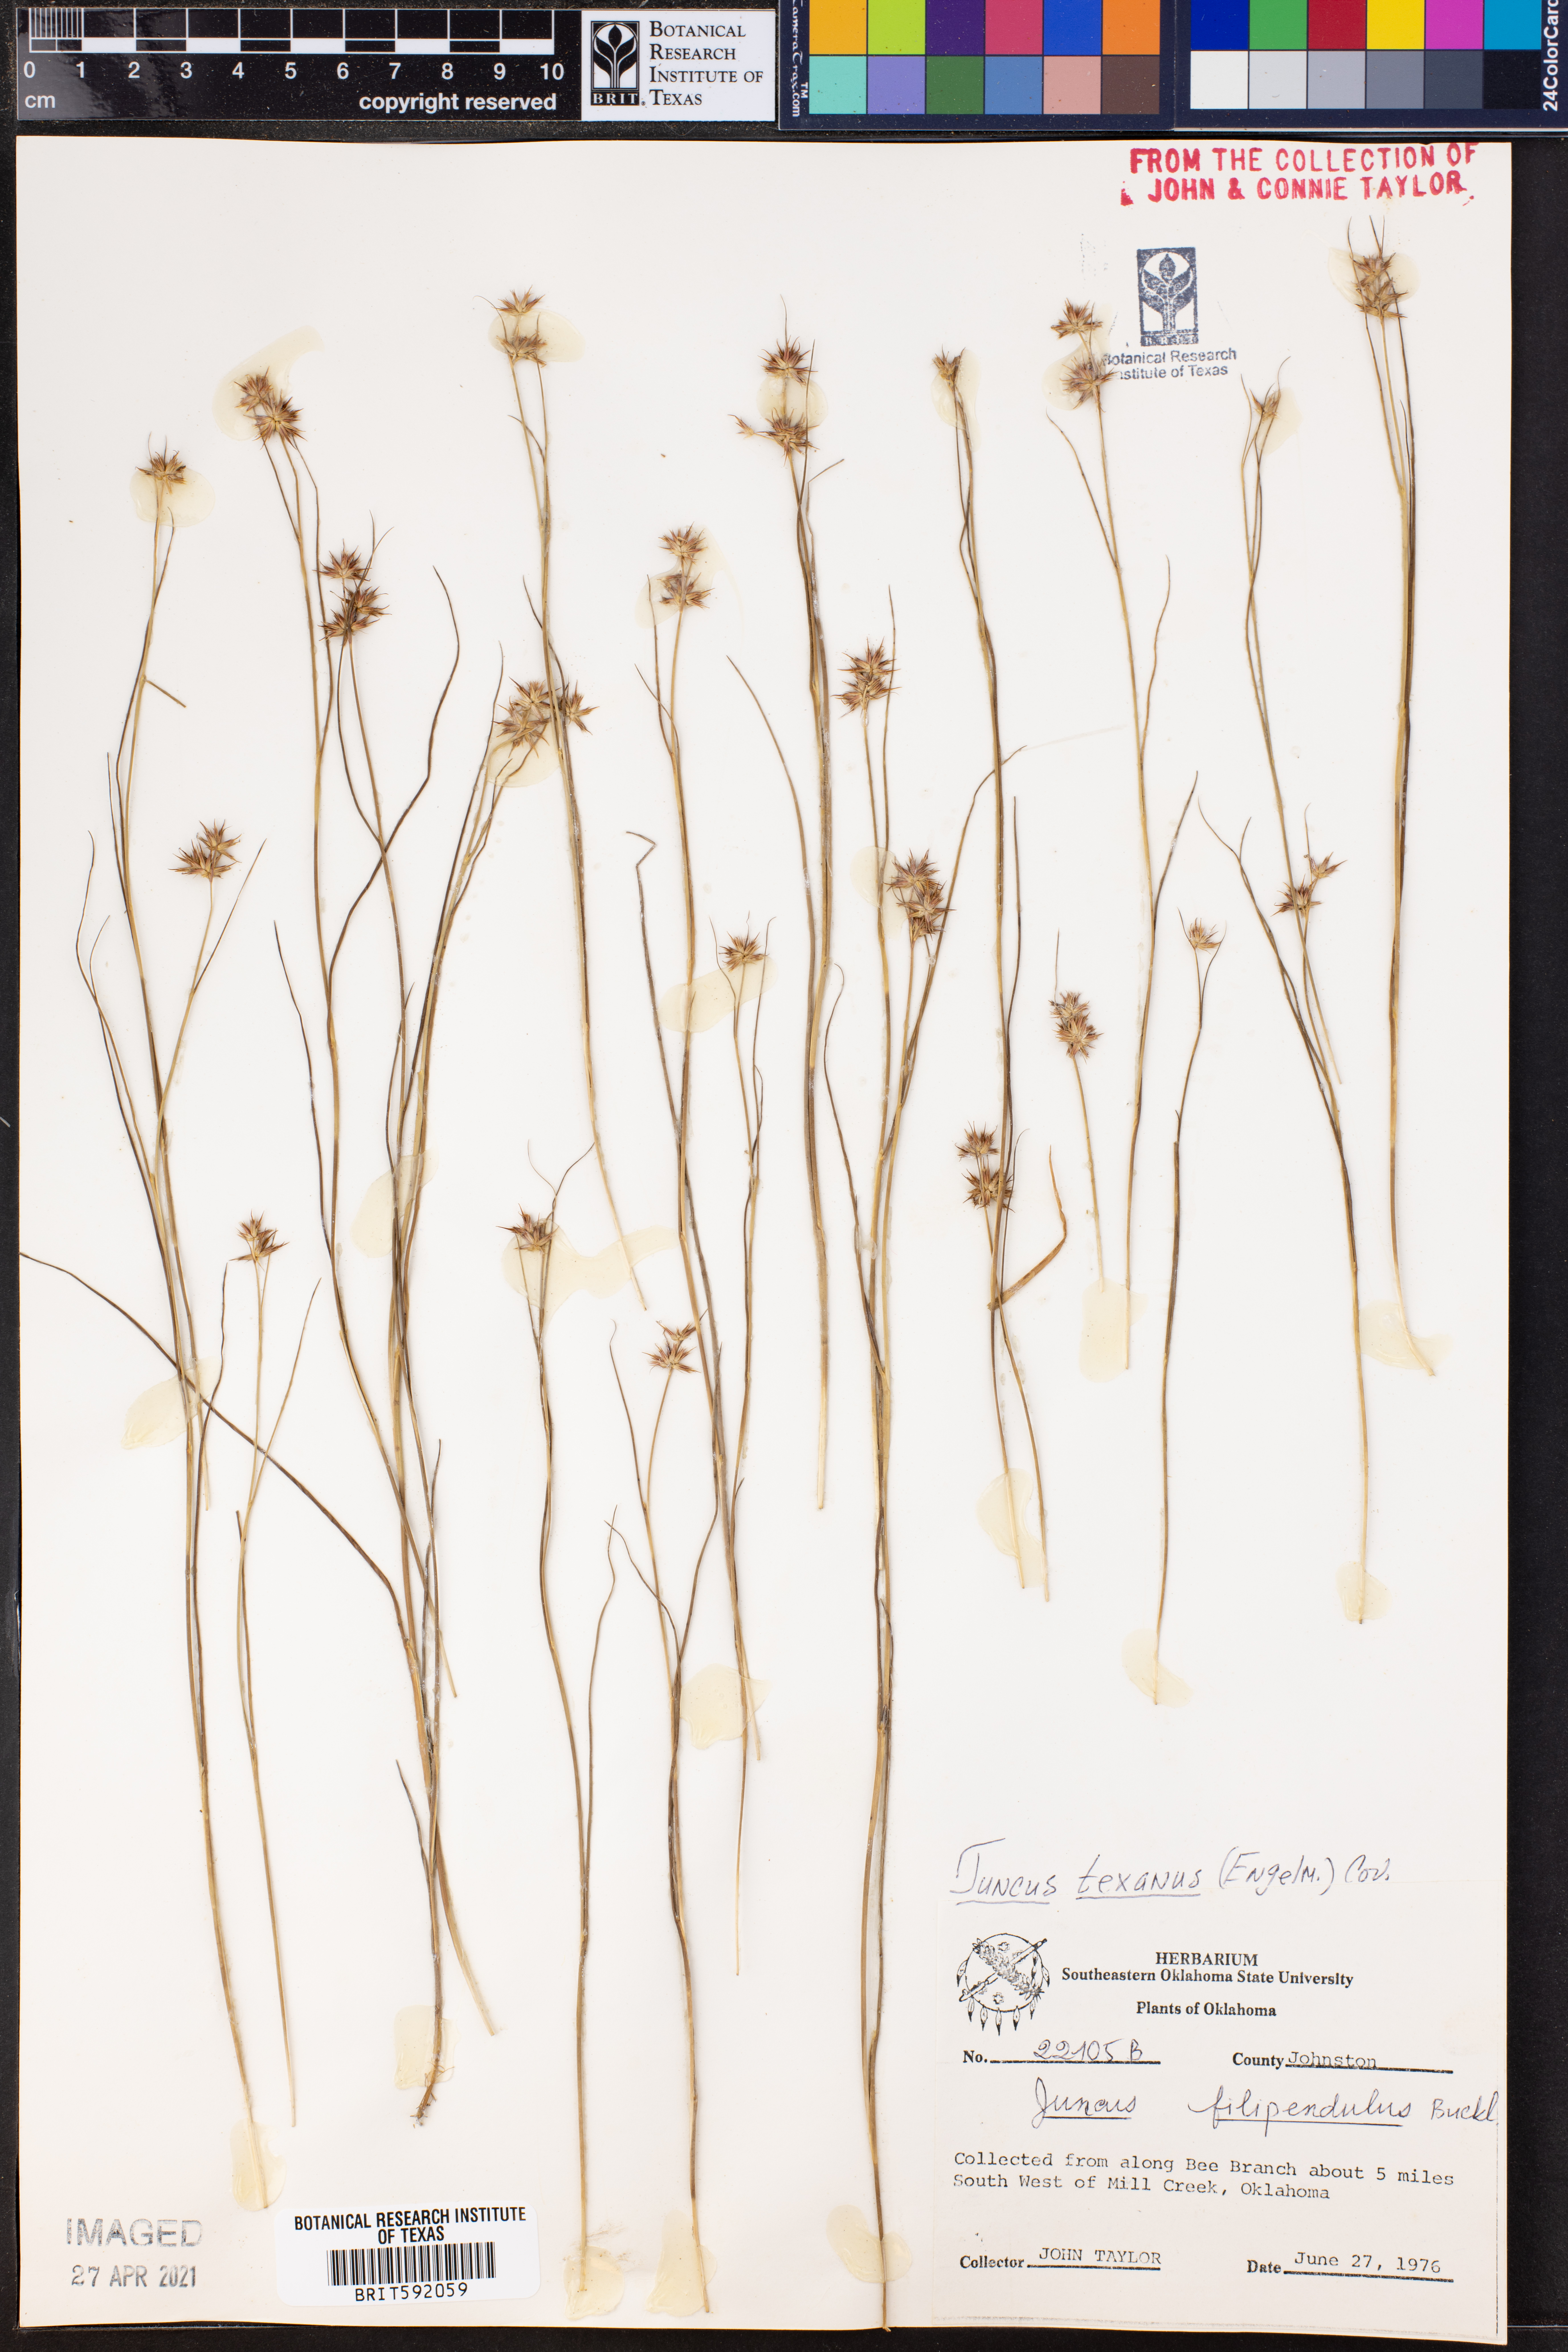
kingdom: Plantae
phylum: Tracheophyta
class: Liliopsida
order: Poales
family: Juncaceae
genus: Juncus
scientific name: Juncus texanus
